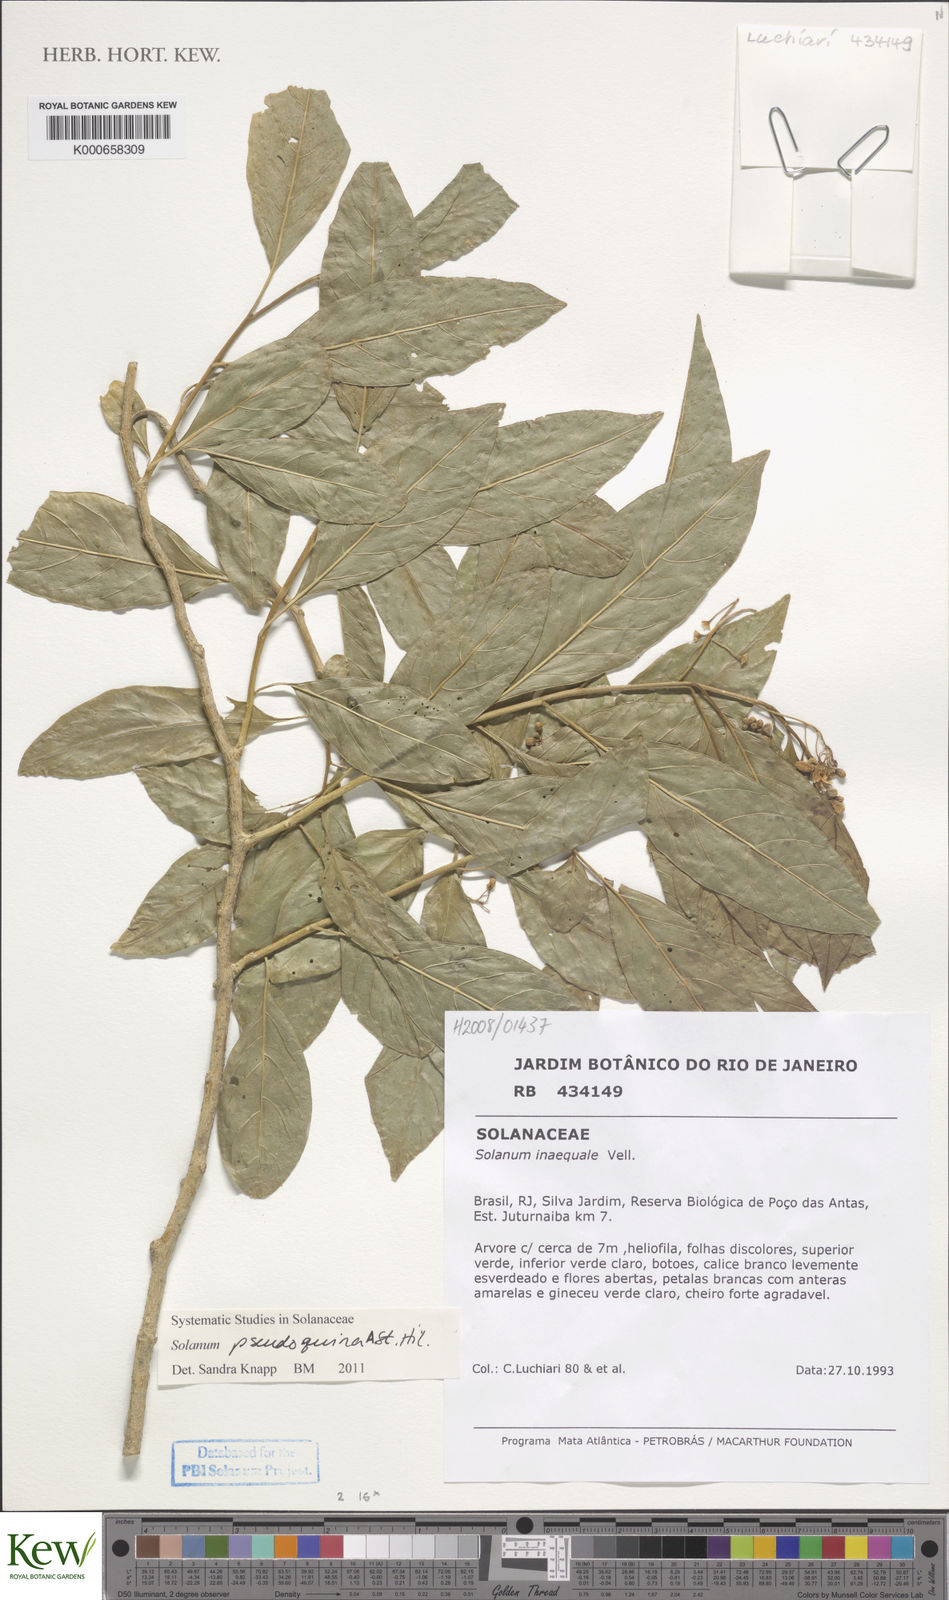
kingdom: Plantae
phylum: Tracheophyta
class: Magnoliopsida
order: Solanales
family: Solanaceae
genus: Solanum
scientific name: Solanum pseudoquina
